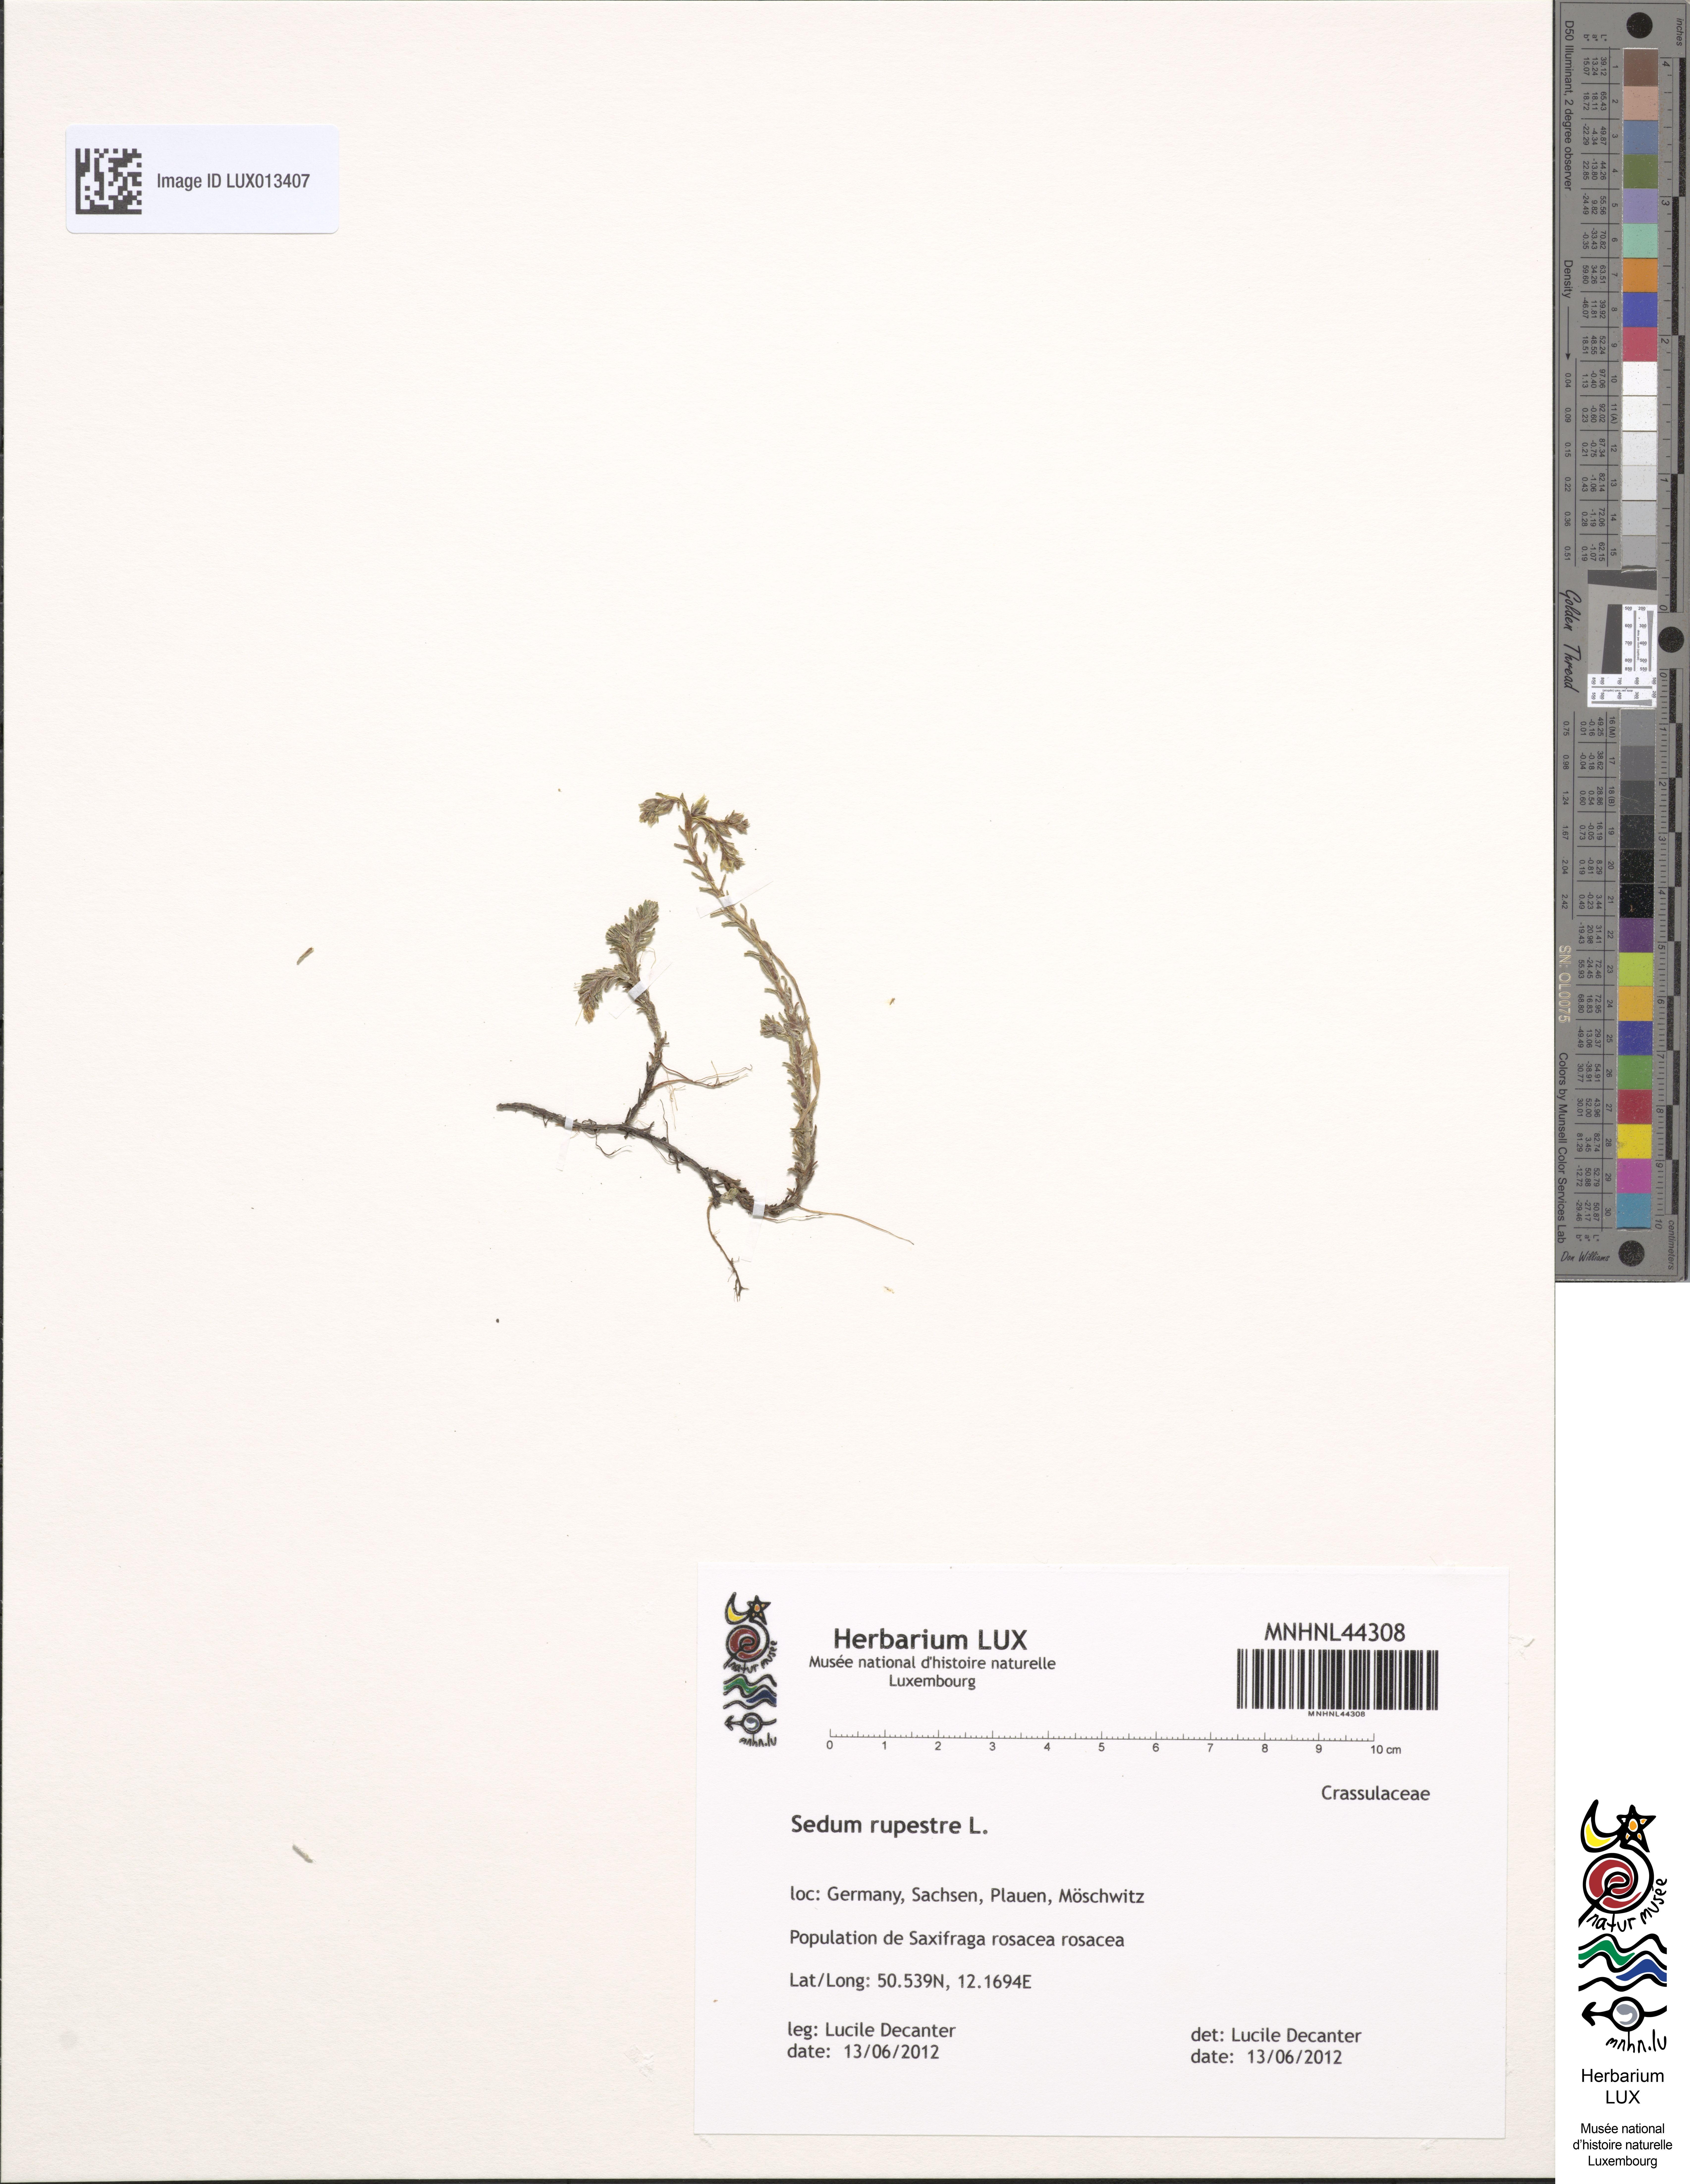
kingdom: Plantae
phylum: Tracheophyta
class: Magnoliopsida
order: Saxifragales
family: Crassulaceae
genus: Petrosedum
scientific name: Petrosedum rupestre
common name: Jenny's stonecrop
